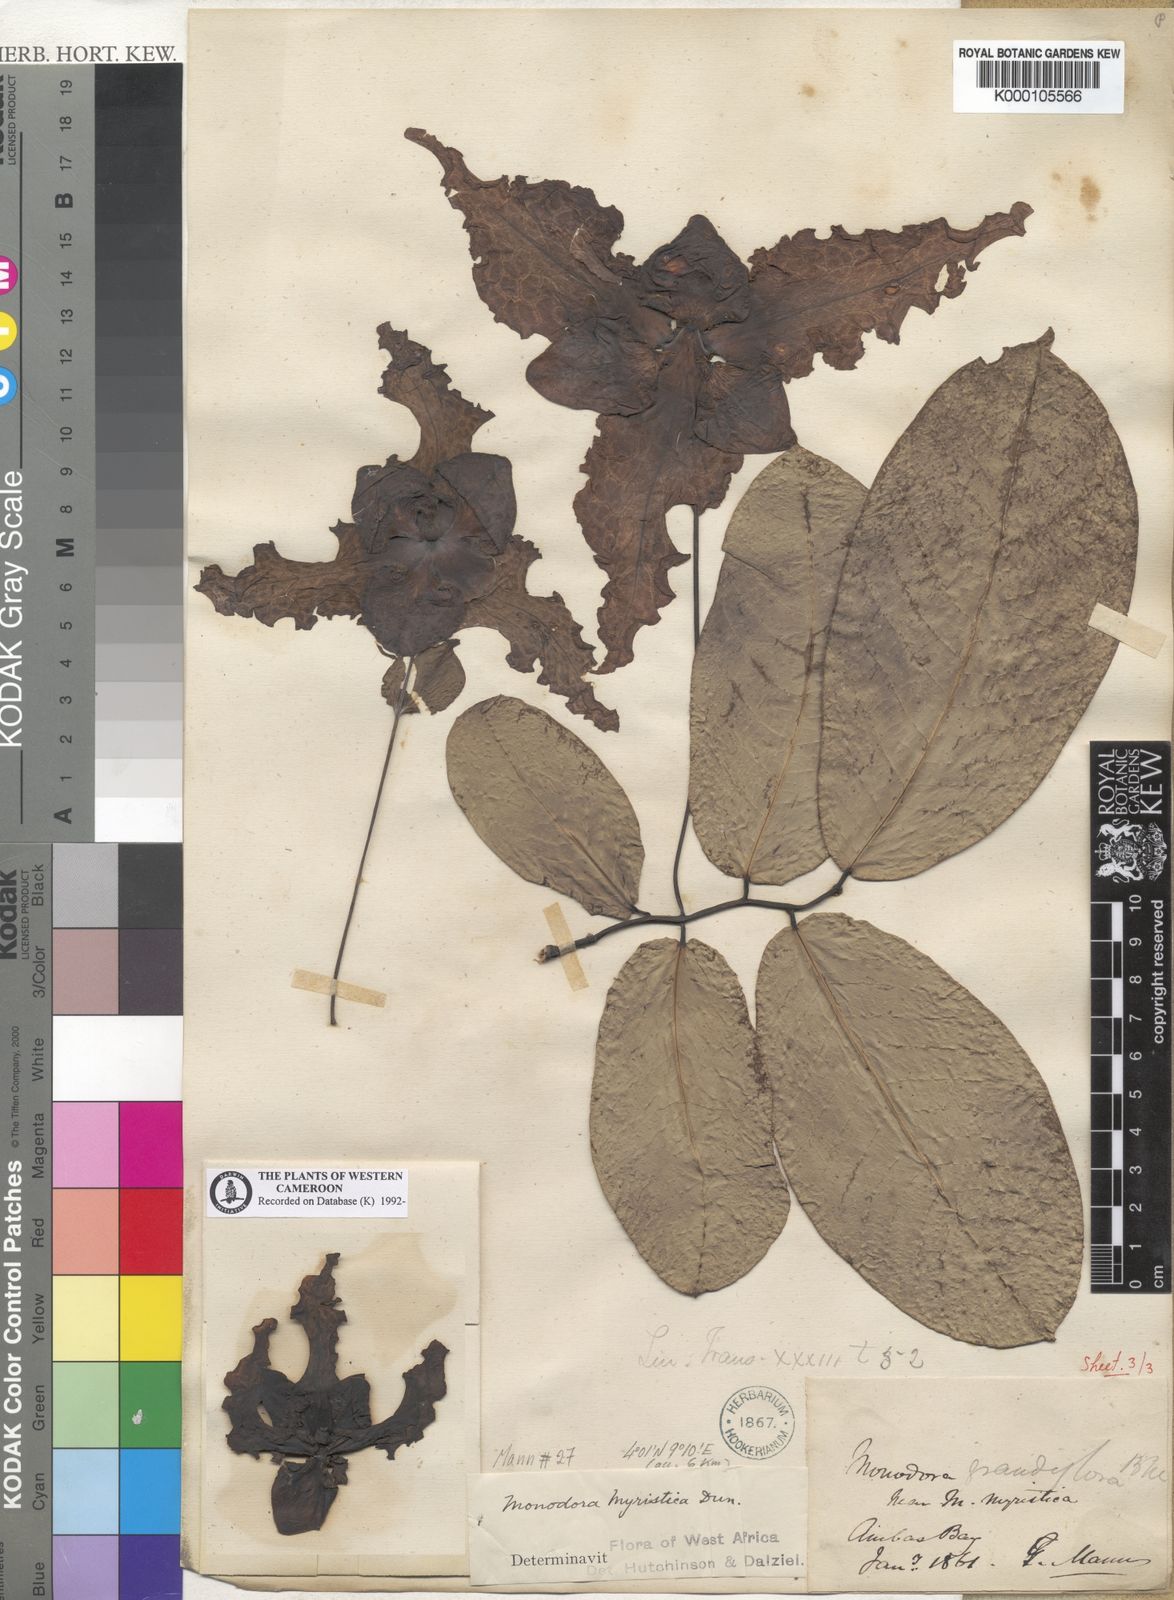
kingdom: Plantae
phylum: Tracheophyta
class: Magnoliopsida
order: Magnoliales
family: Annonaceae
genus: Monodora
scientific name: Monodora myristica
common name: African nutmeg
